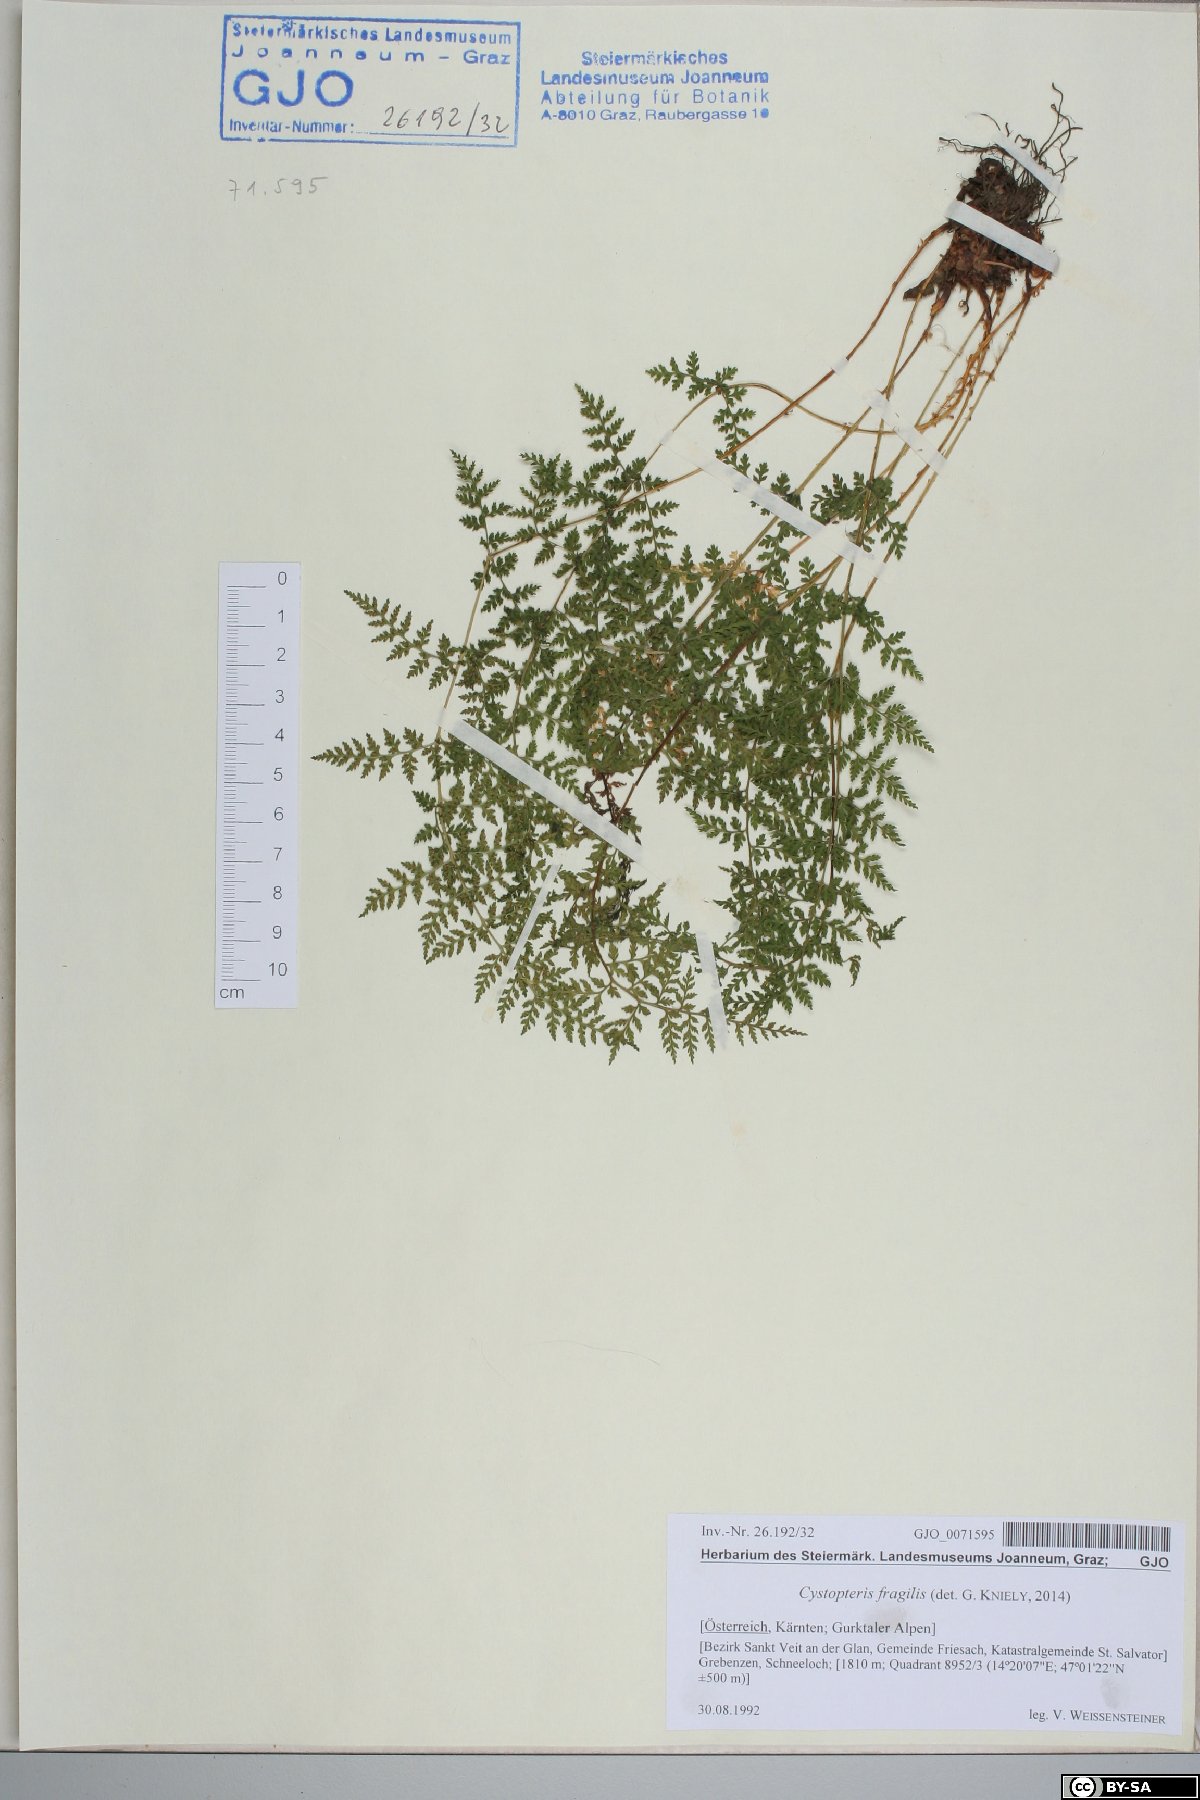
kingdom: Plantae
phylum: Tracheophyta
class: Polypodiopsida
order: Polypodiales
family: Cystopteridaceae
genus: Cystopteris
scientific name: Cystopteris fragilis
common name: Brittle bladder fern
